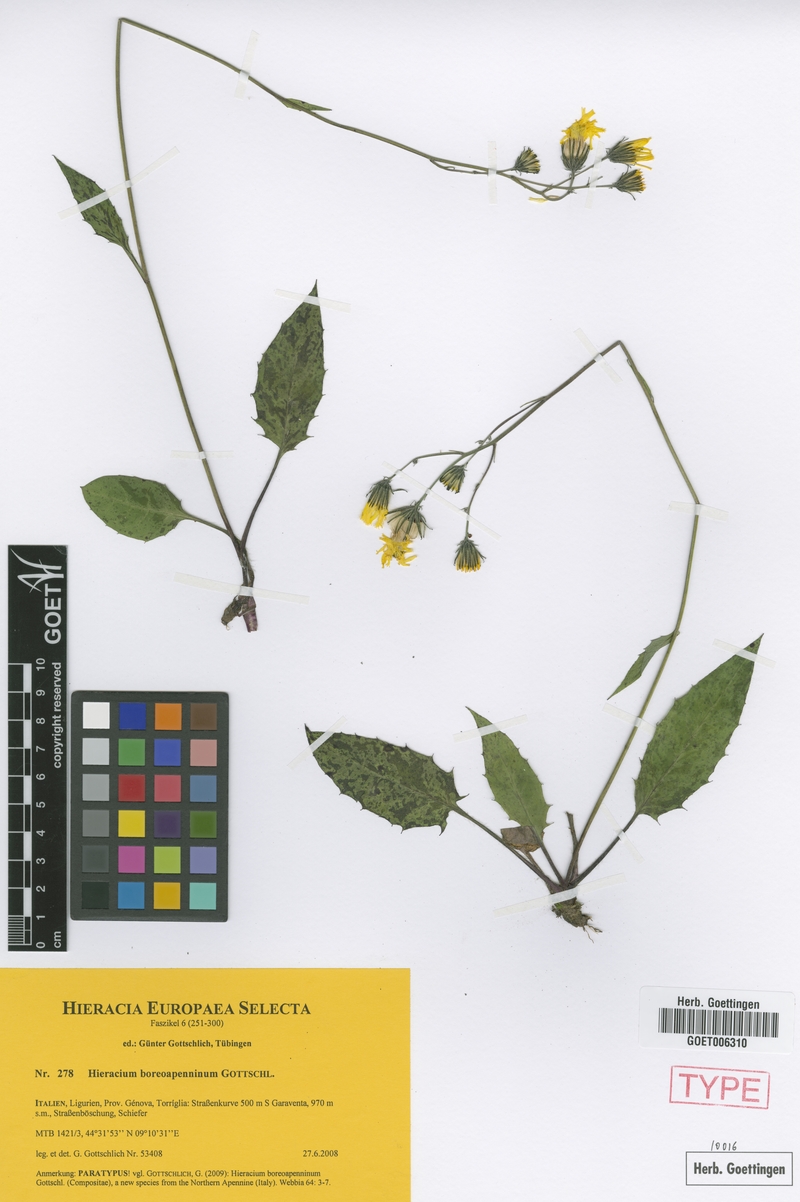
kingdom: Plantae
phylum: Tracheophyta
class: Magnoliopsida
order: Asterales
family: Asteraceae
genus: Hieracium
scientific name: Hieracium boreoapenninum
